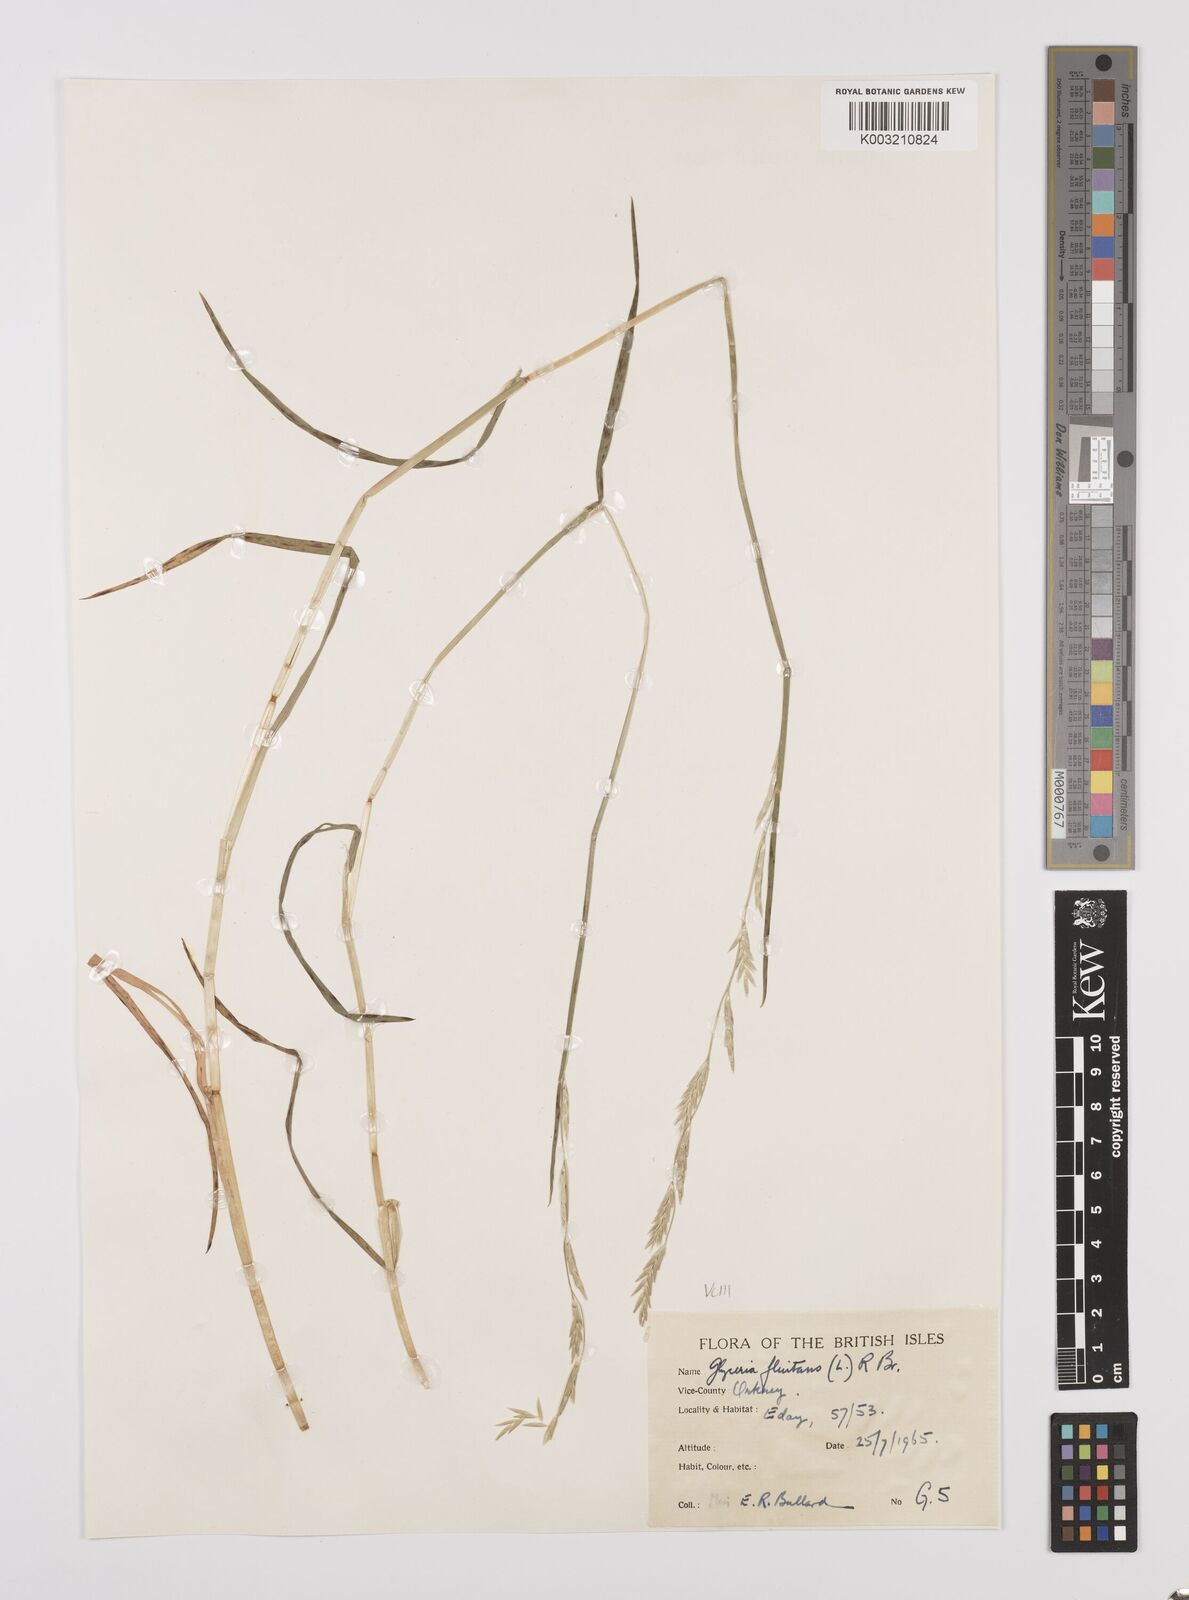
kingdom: Plantae
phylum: Tracheophyta
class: Liliopsida
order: Poales
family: Poaceae
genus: Glyceria
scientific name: Glyceria fluitans
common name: Floating sweet-grass
